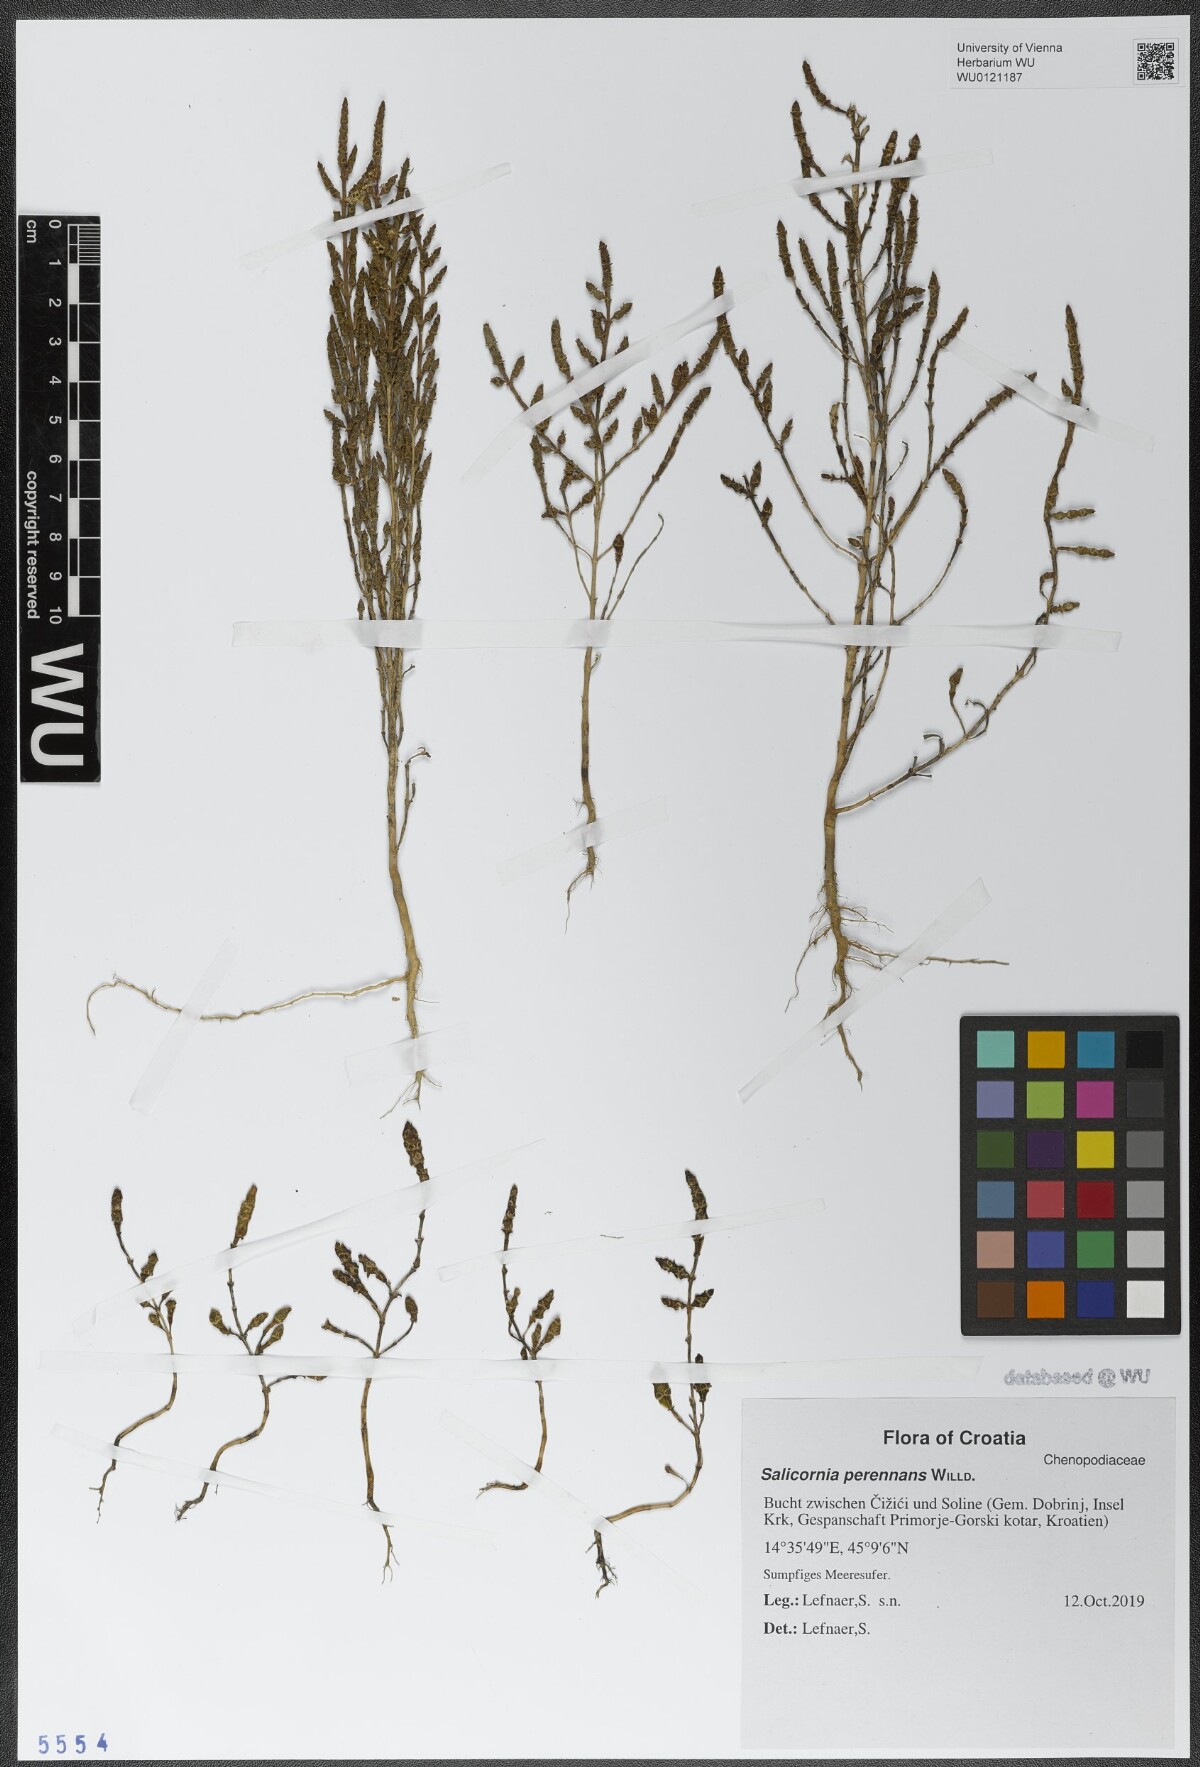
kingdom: Plantae
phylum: Tracheophyta
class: Magnoliopsida
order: Caryophyllales
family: Amaranthaceae
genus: Salicornia
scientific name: Salicornia perennans
